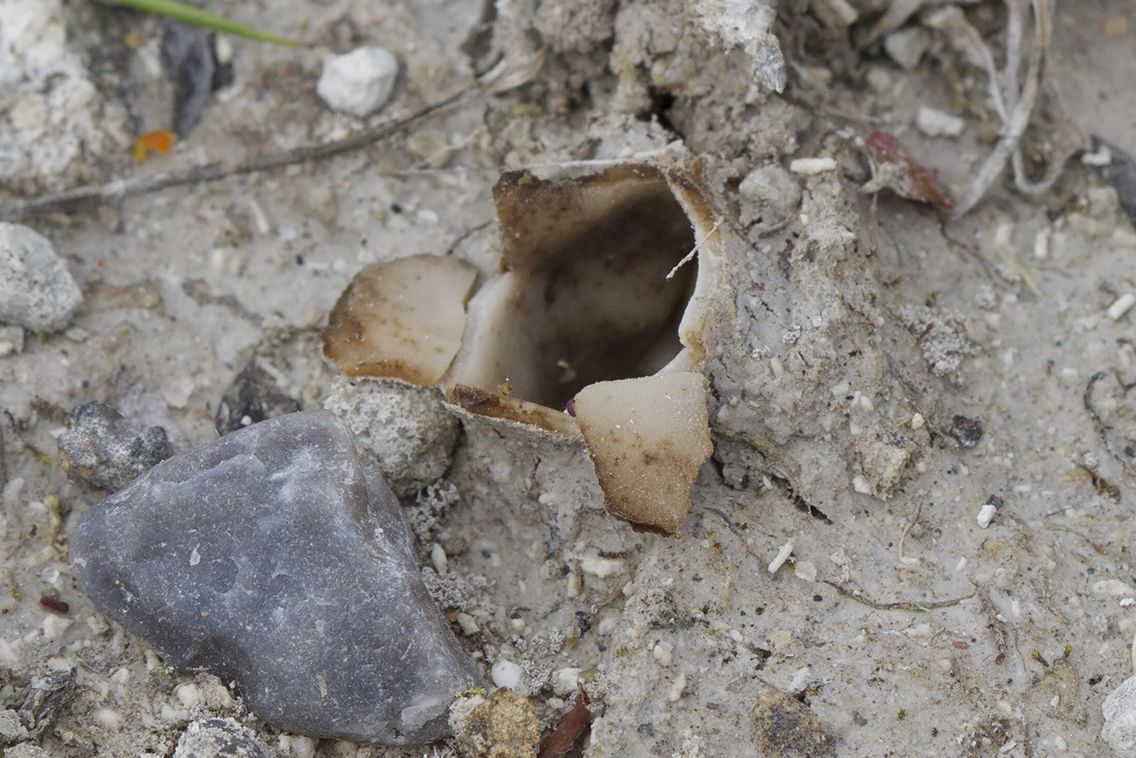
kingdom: Fungi
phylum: Ascomycota
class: Pezizomycetes
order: Pezizales
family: Pyronemataceae
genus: Geopora
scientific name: Geopora arenicola
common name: trøffel-jordbæger
